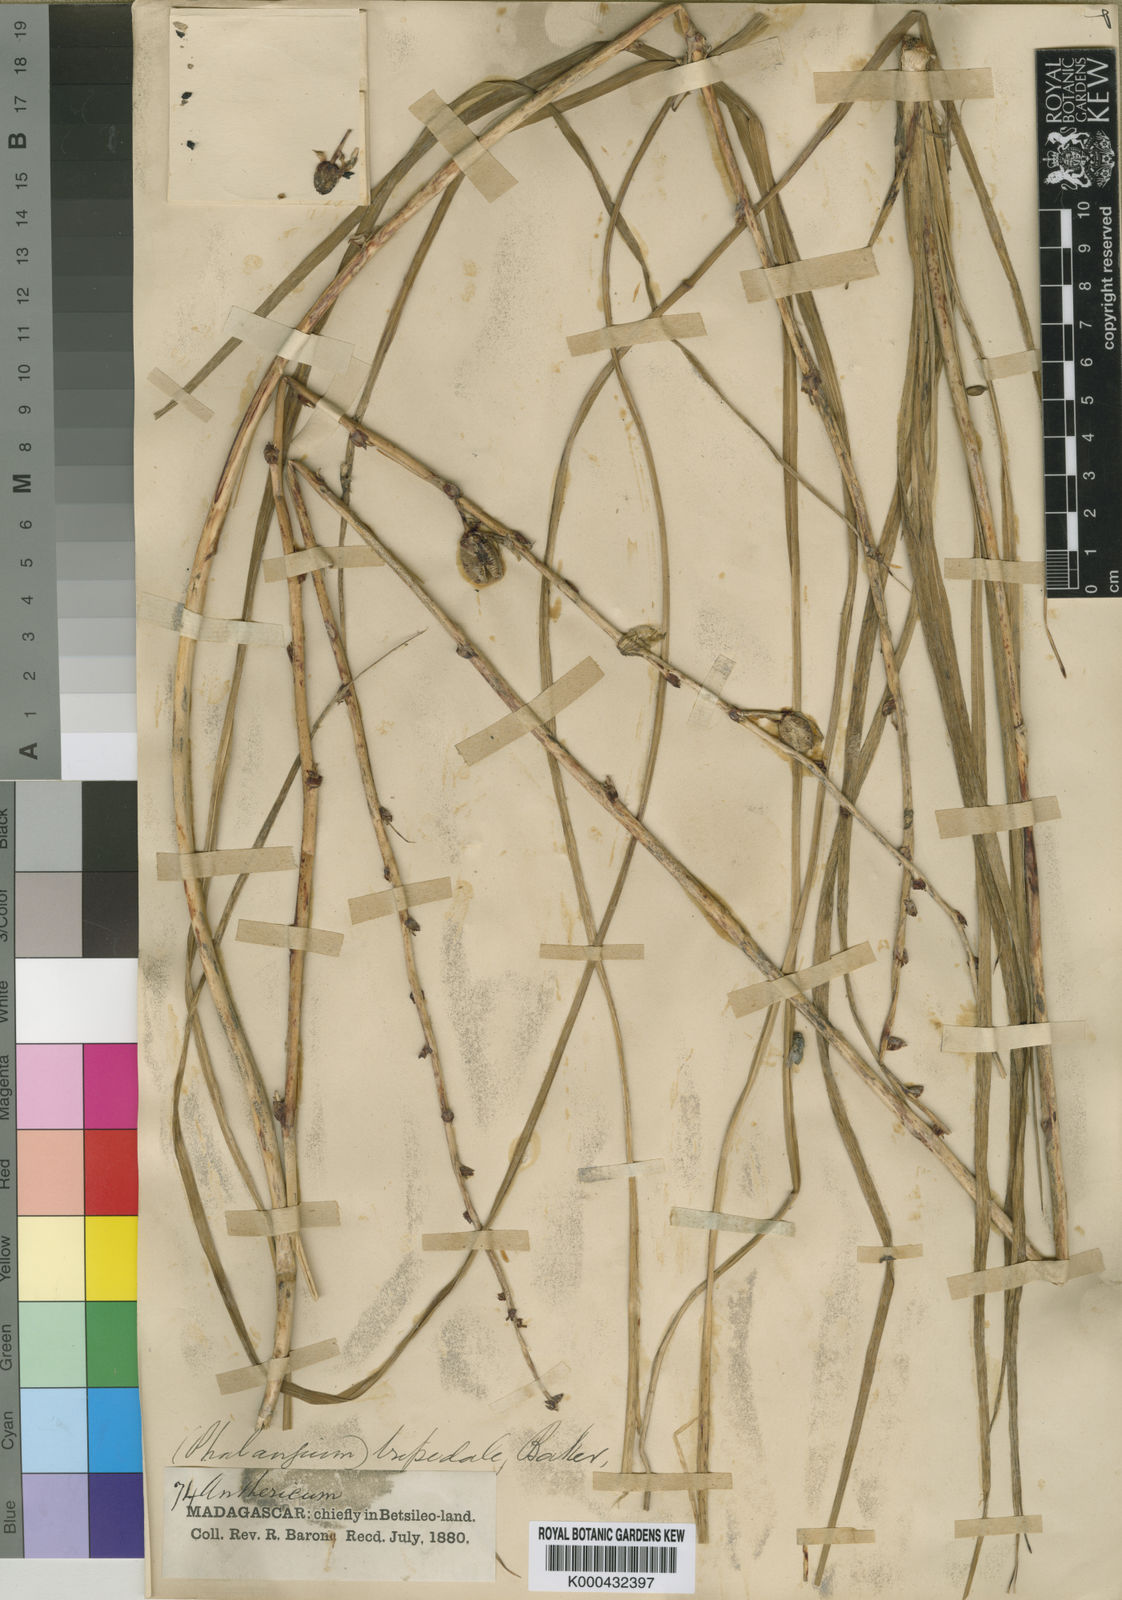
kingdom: Plantae
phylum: Tracheophyta
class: Liliopsida
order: Asparagales
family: Asparagaceae
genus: Chlorophytum
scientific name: Chlorophytum tripedale
